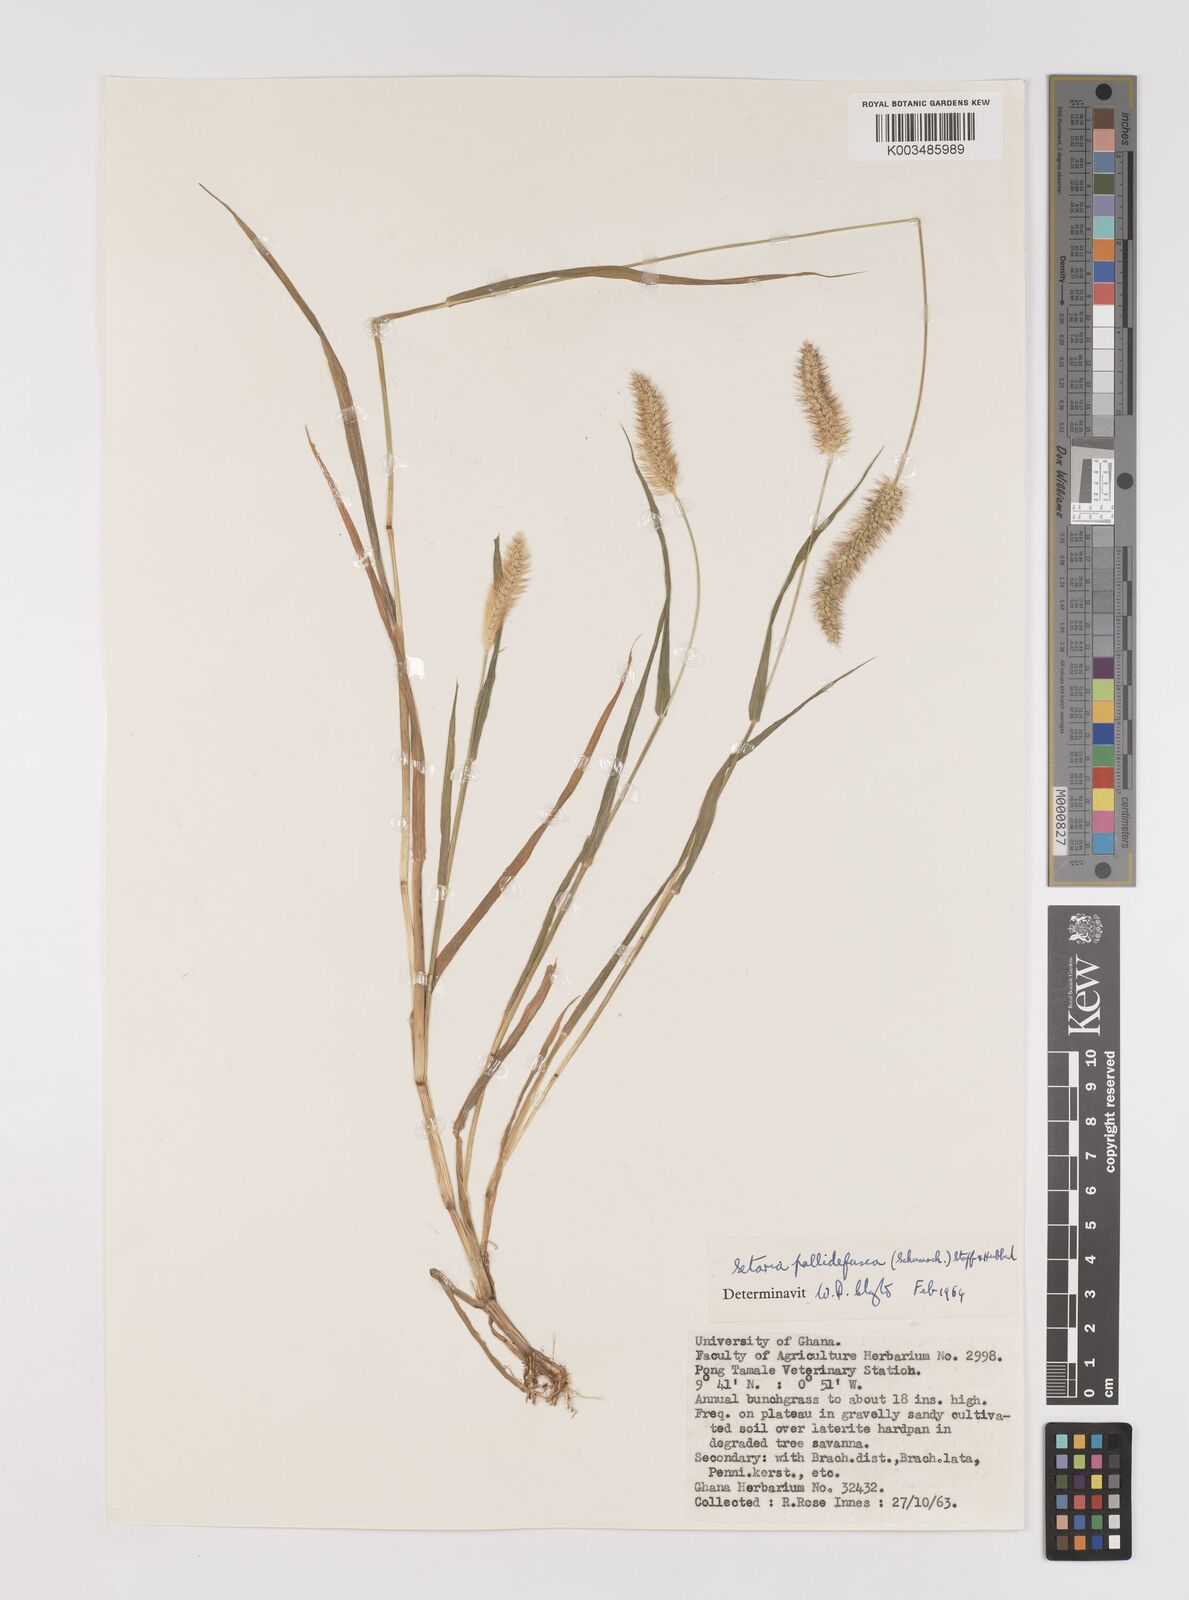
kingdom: Plantae
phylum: Tracheophyta
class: Liliopsida
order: Poales
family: Poaceae
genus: Setaria
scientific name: Setaria pumila
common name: Yellow bristle-grass
